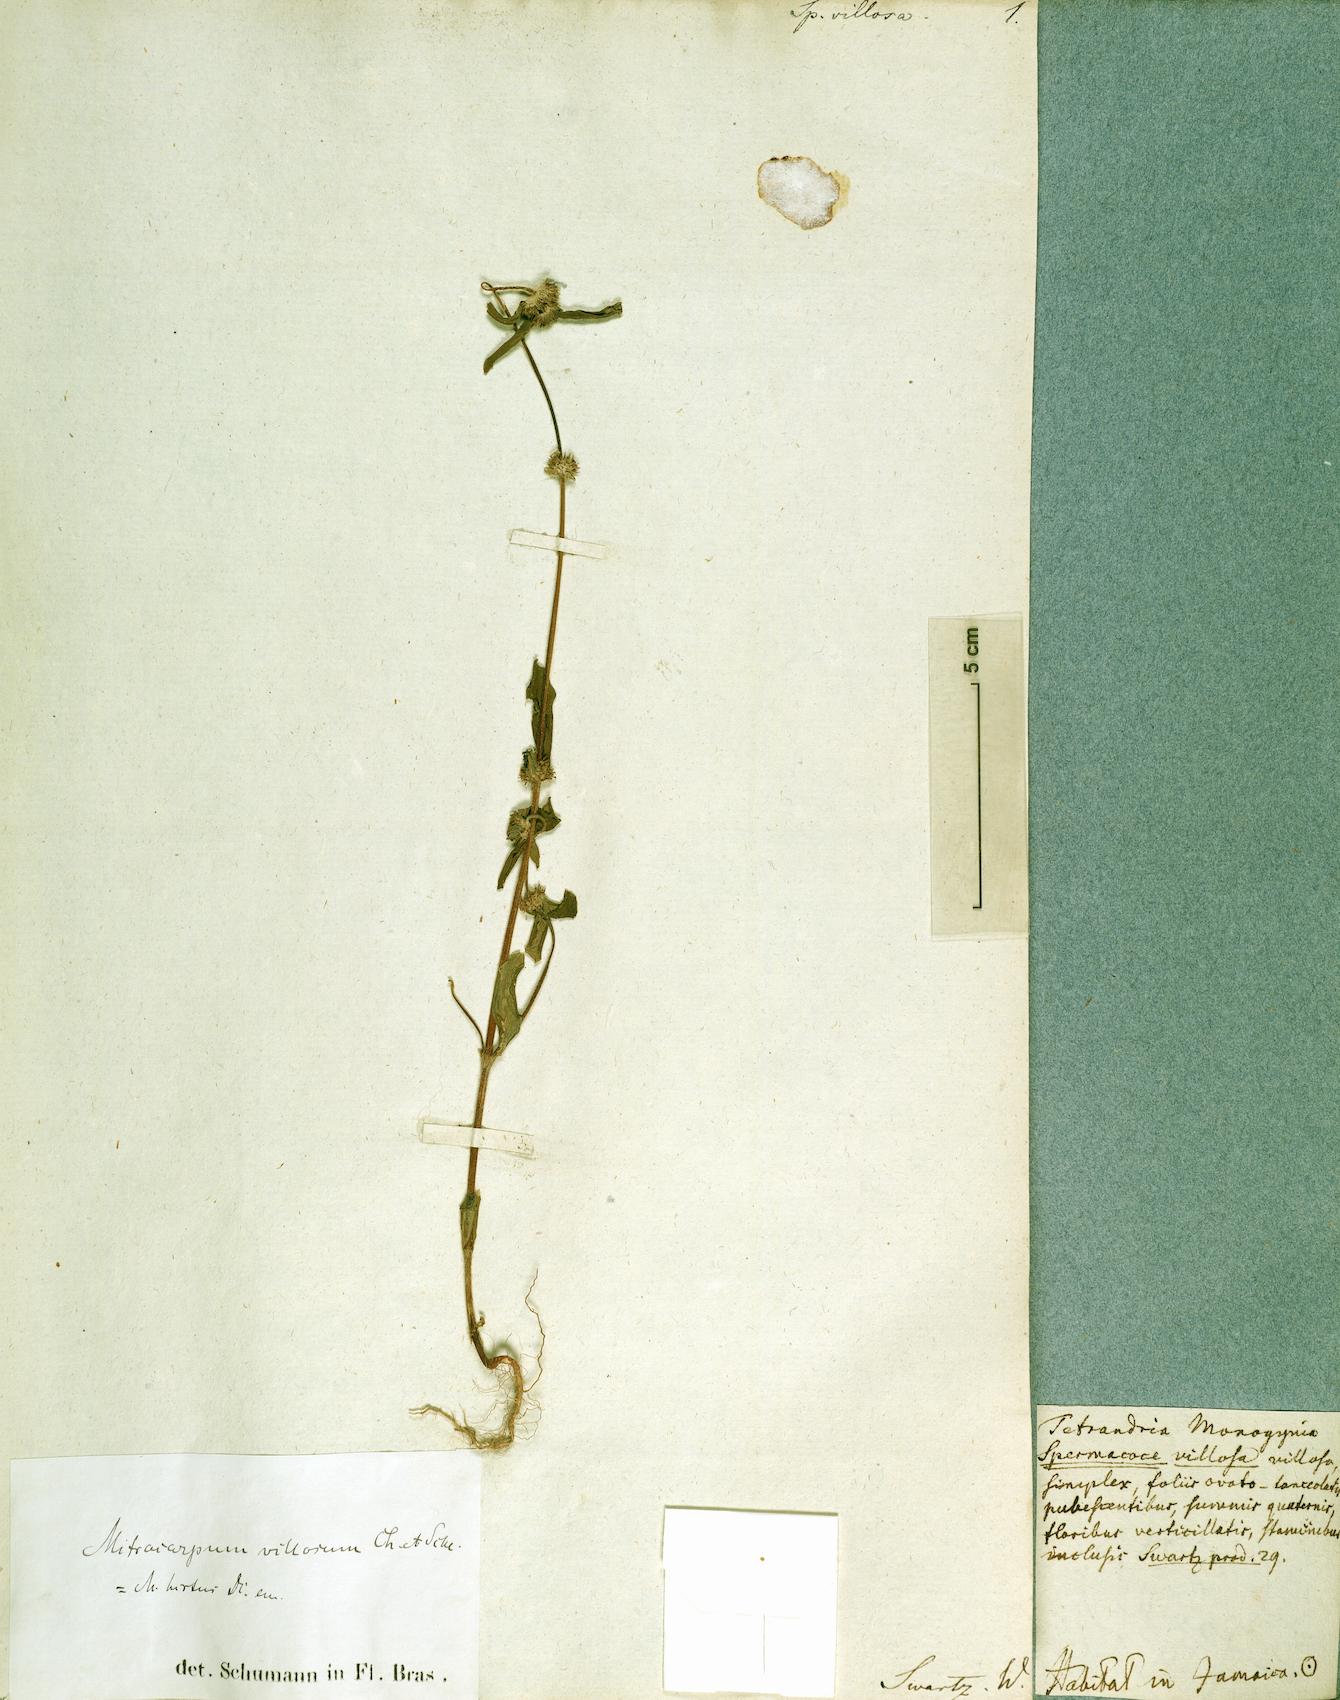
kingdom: Plantae
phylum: Tracheophyta
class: Magnoliopsida
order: Gentianales
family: Rubiaceae
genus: Mitracarpus
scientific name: Mitracarpus hirtus
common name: Tropical girdlepod
